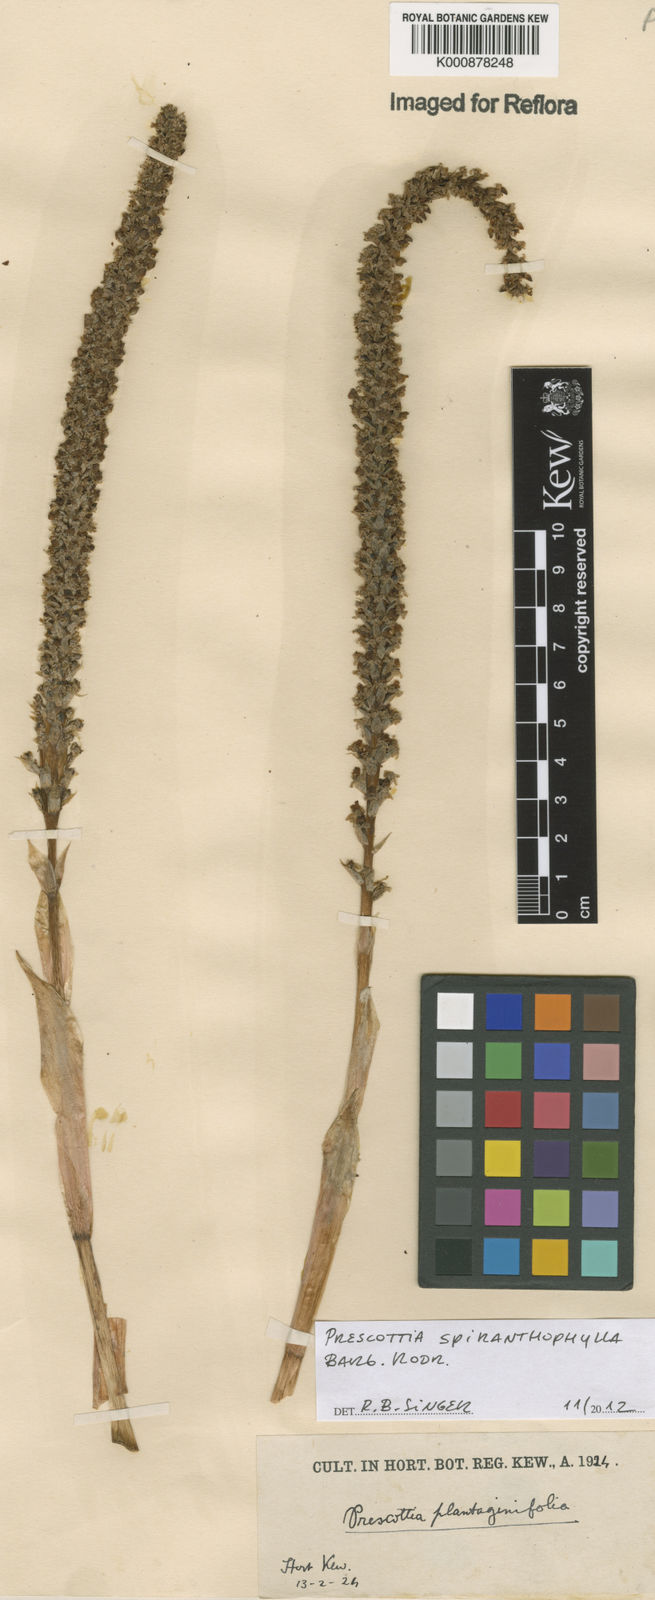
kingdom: Plantae
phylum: Tracheophyta
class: Liliopsida
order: Asparagales
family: Orchidaceae
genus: Prescottia
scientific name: Prescottia spiranthophylla
